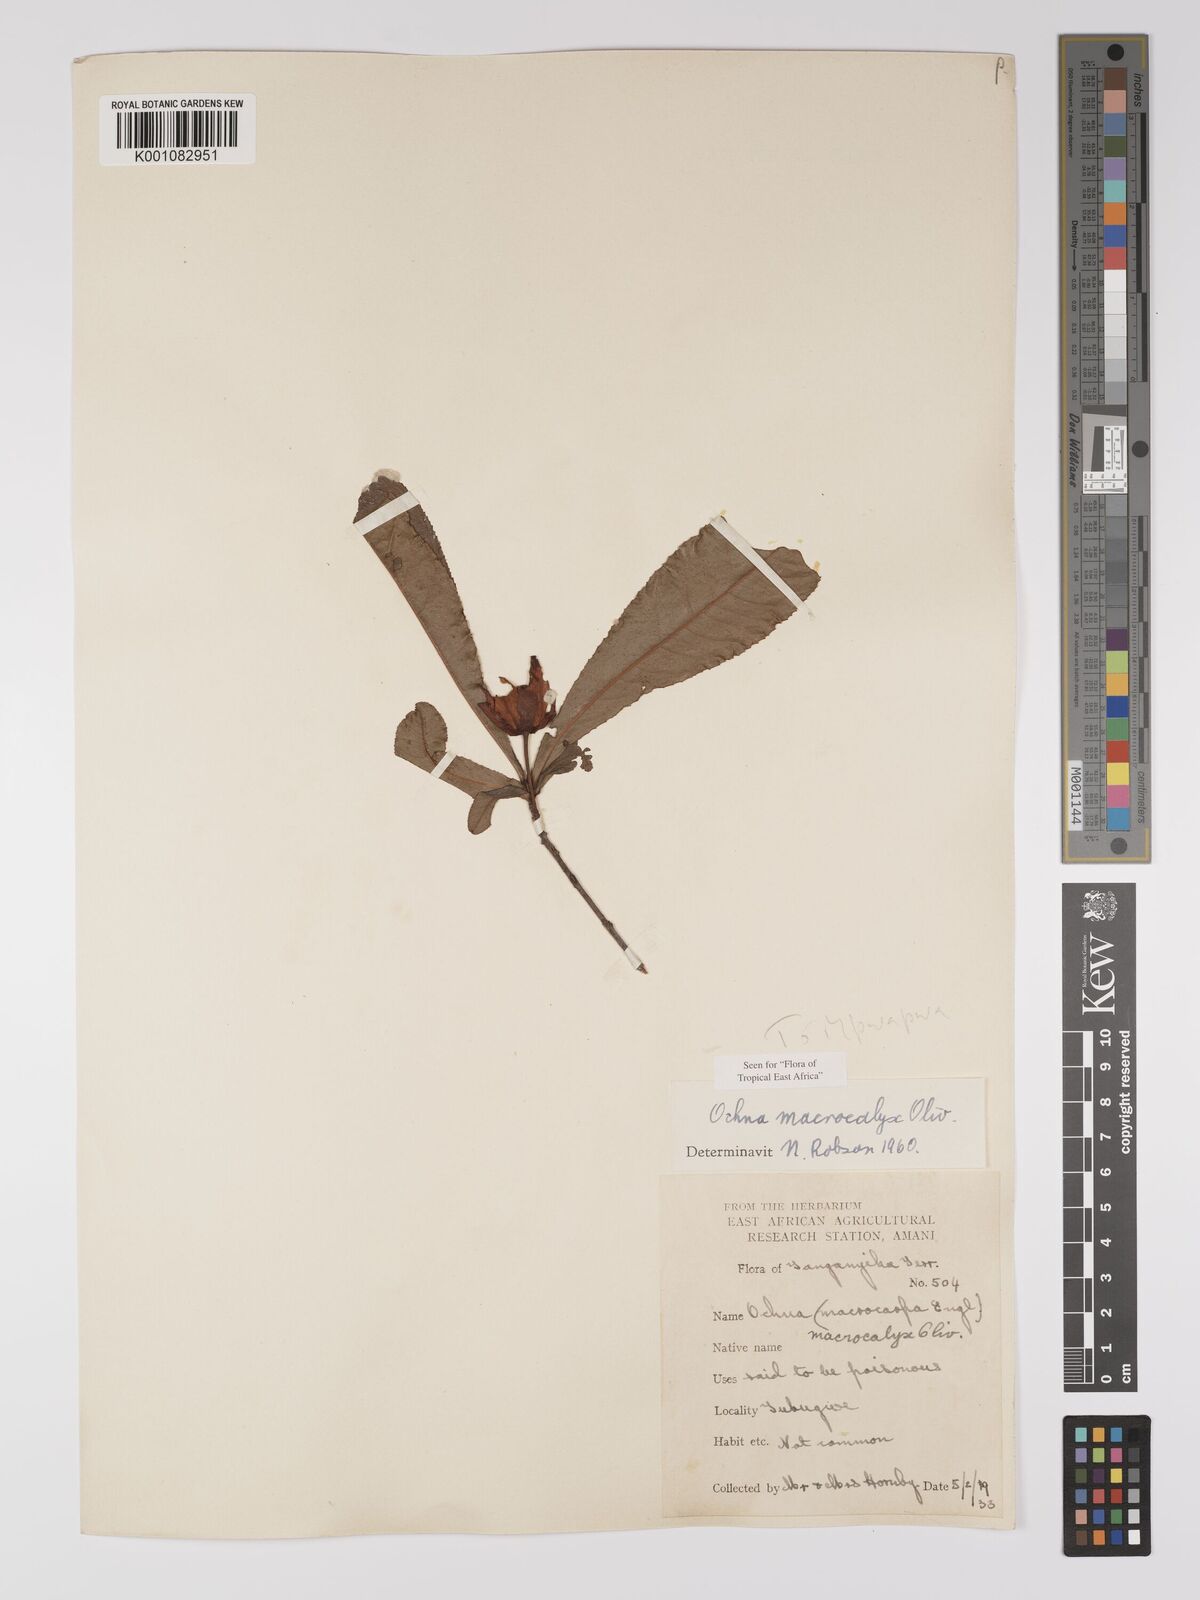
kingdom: Plantae
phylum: Tracheophyta
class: Magnoliopsida
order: Malpighiales
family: Ochnaceae
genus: Ochna
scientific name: Ochna macrocalyx
